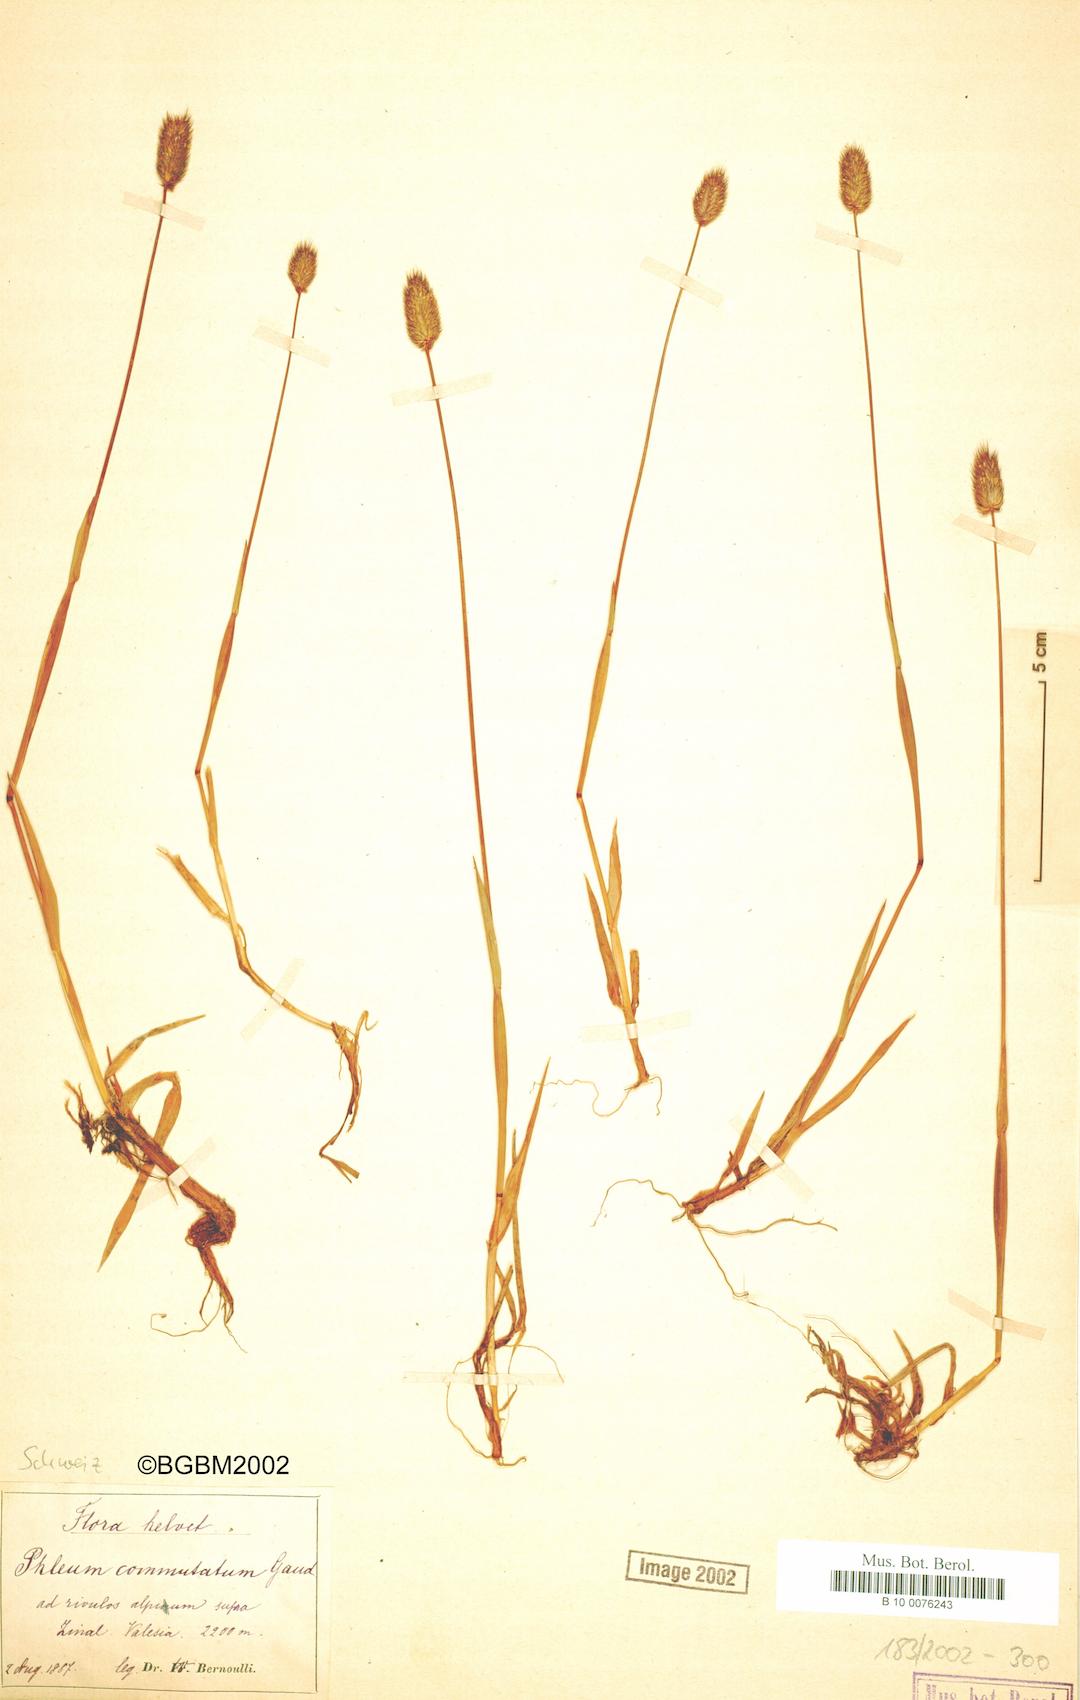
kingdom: Plantae
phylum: Tracheophyta
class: Liliopsida
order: Poales
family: Poaceae
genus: Phleum
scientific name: Phleum alpinum
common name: Alpine cat's-tail
